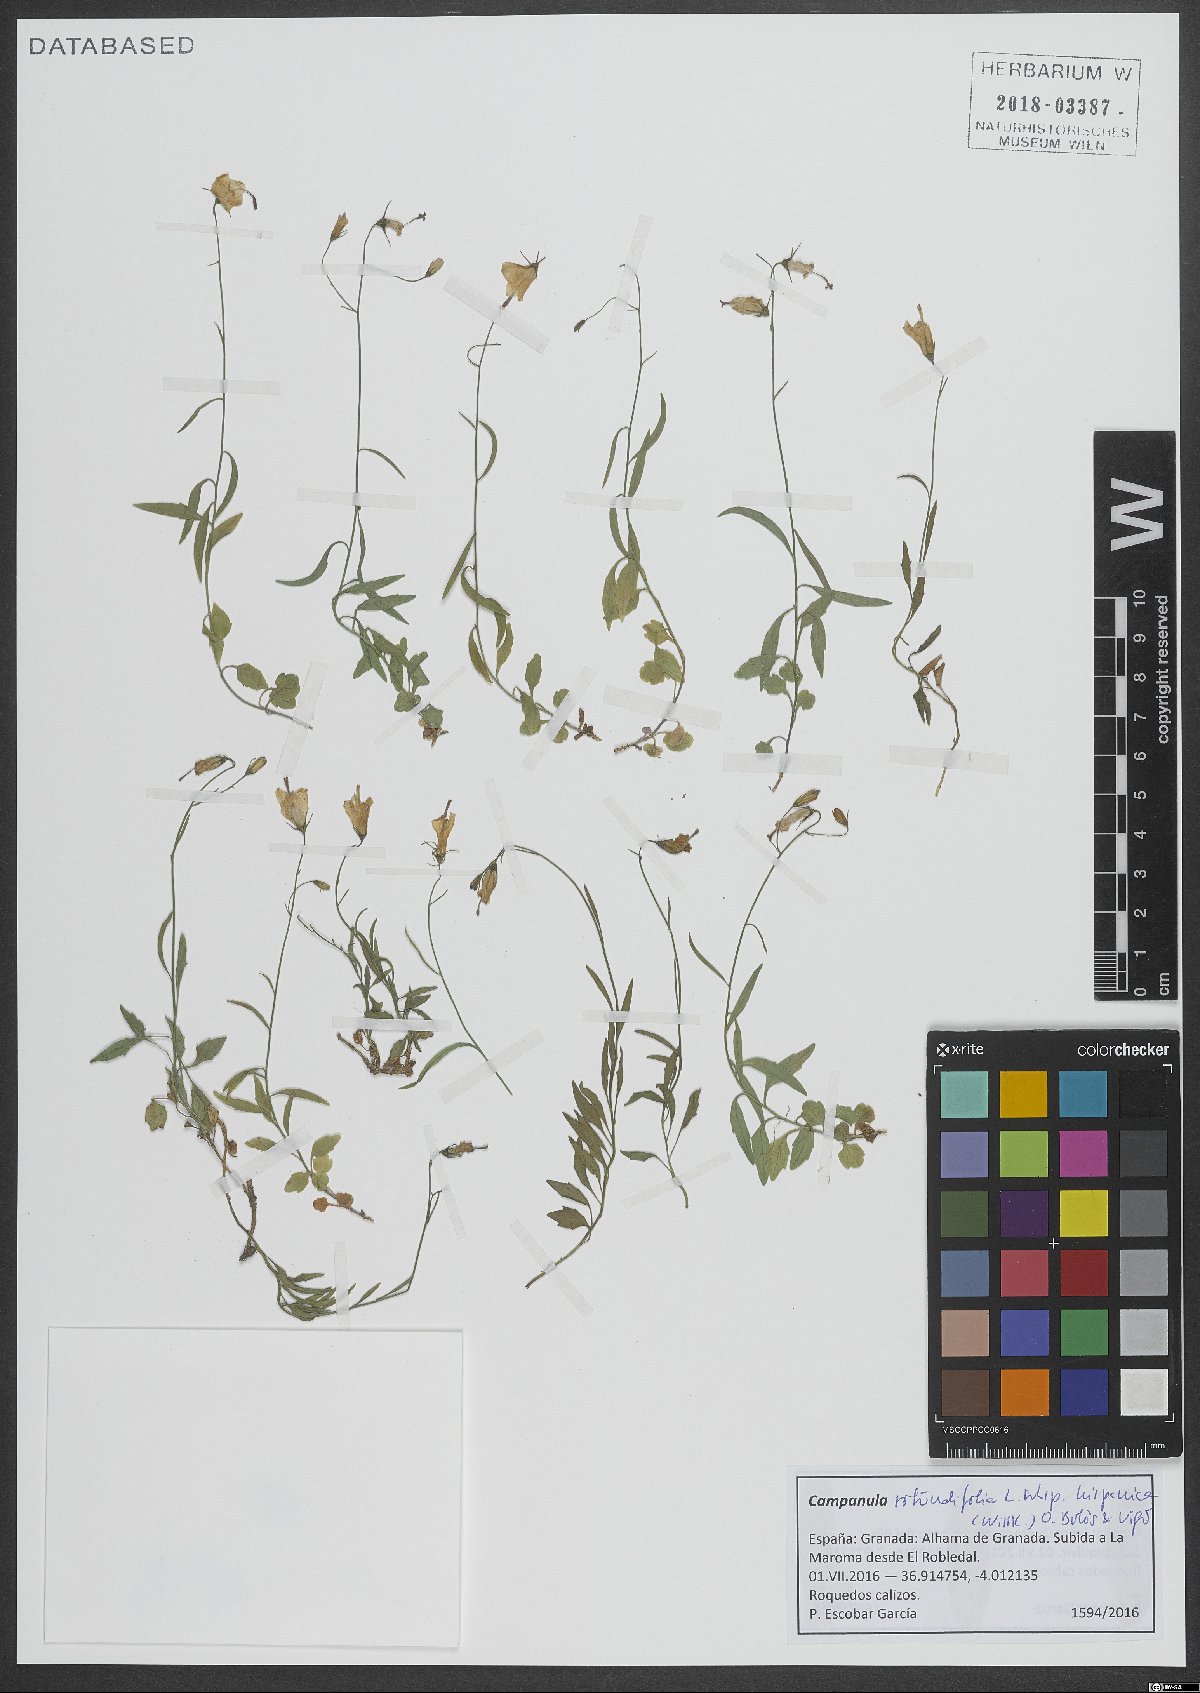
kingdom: Plantae
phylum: Tracheophyta
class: Magnoliopsida
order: Asterales
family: Campanulaceae
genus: Campanula
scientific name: Campanula hispanica
